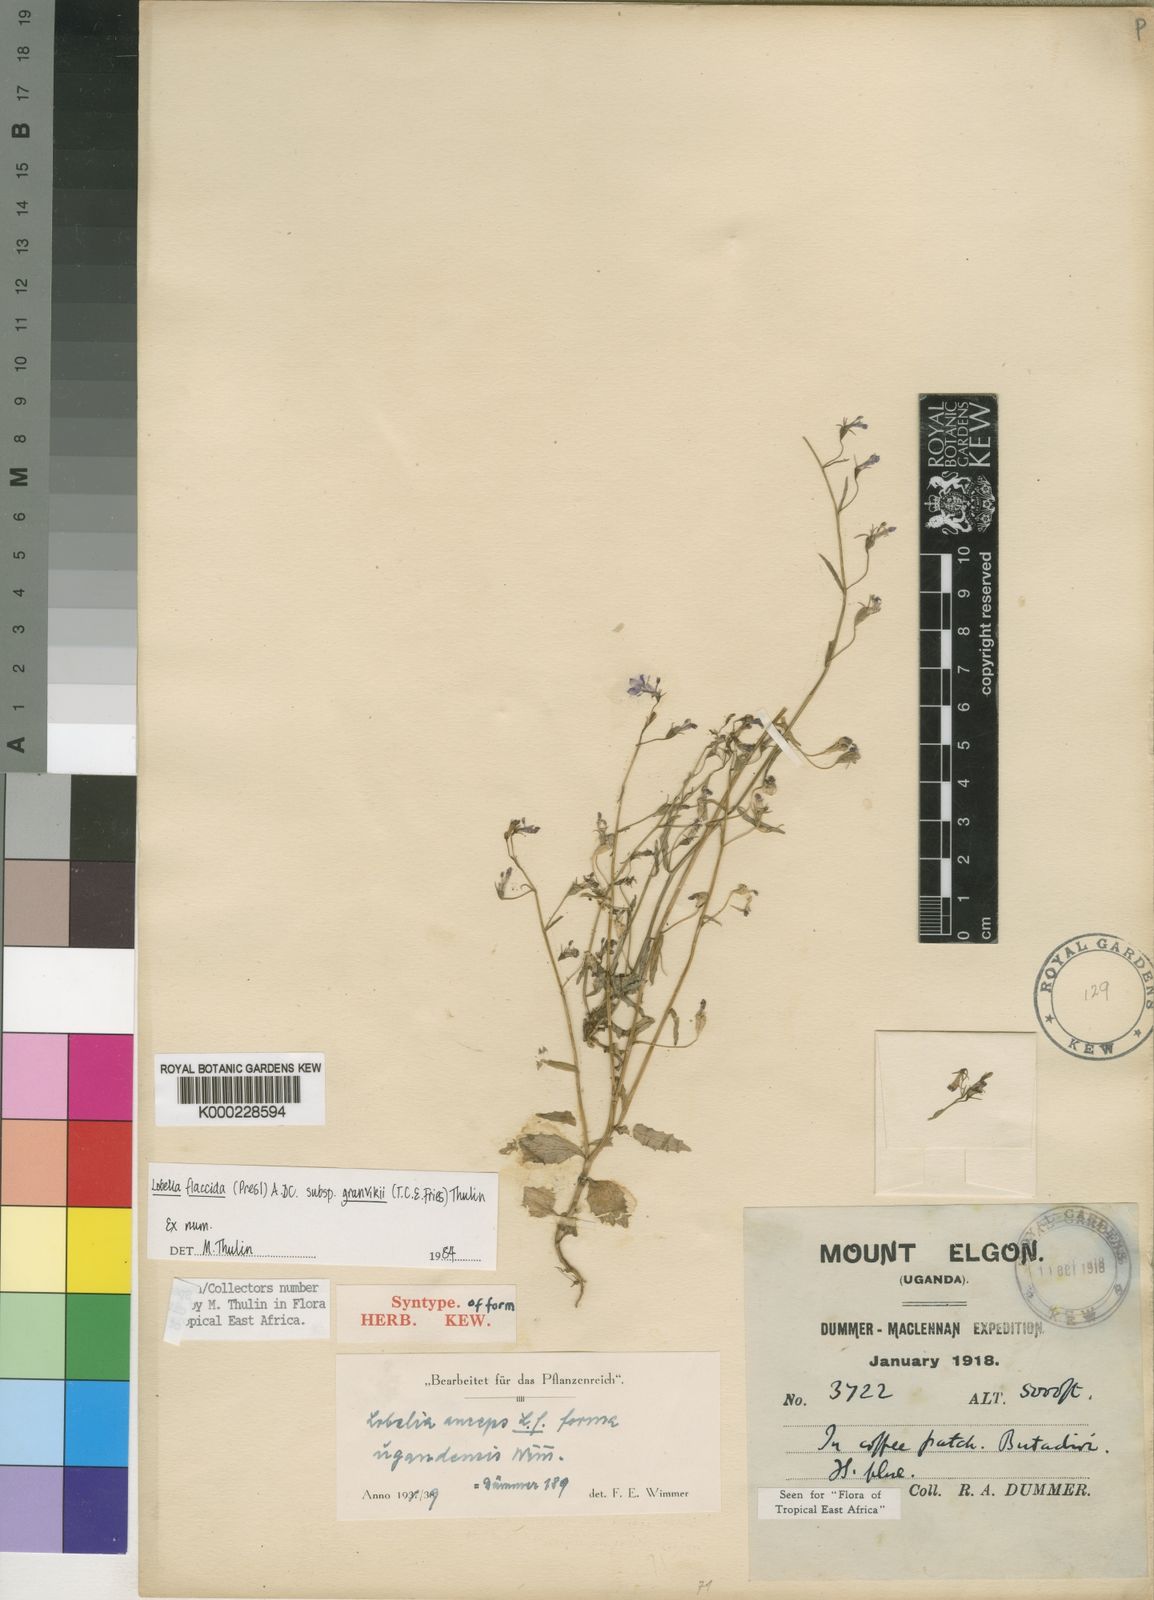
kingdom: Plantae
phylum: Tracheophyta
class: Magnoliopsida
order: Asterales
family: Campanulaceae
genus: Lobelia
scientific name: Lobelia flaccida
